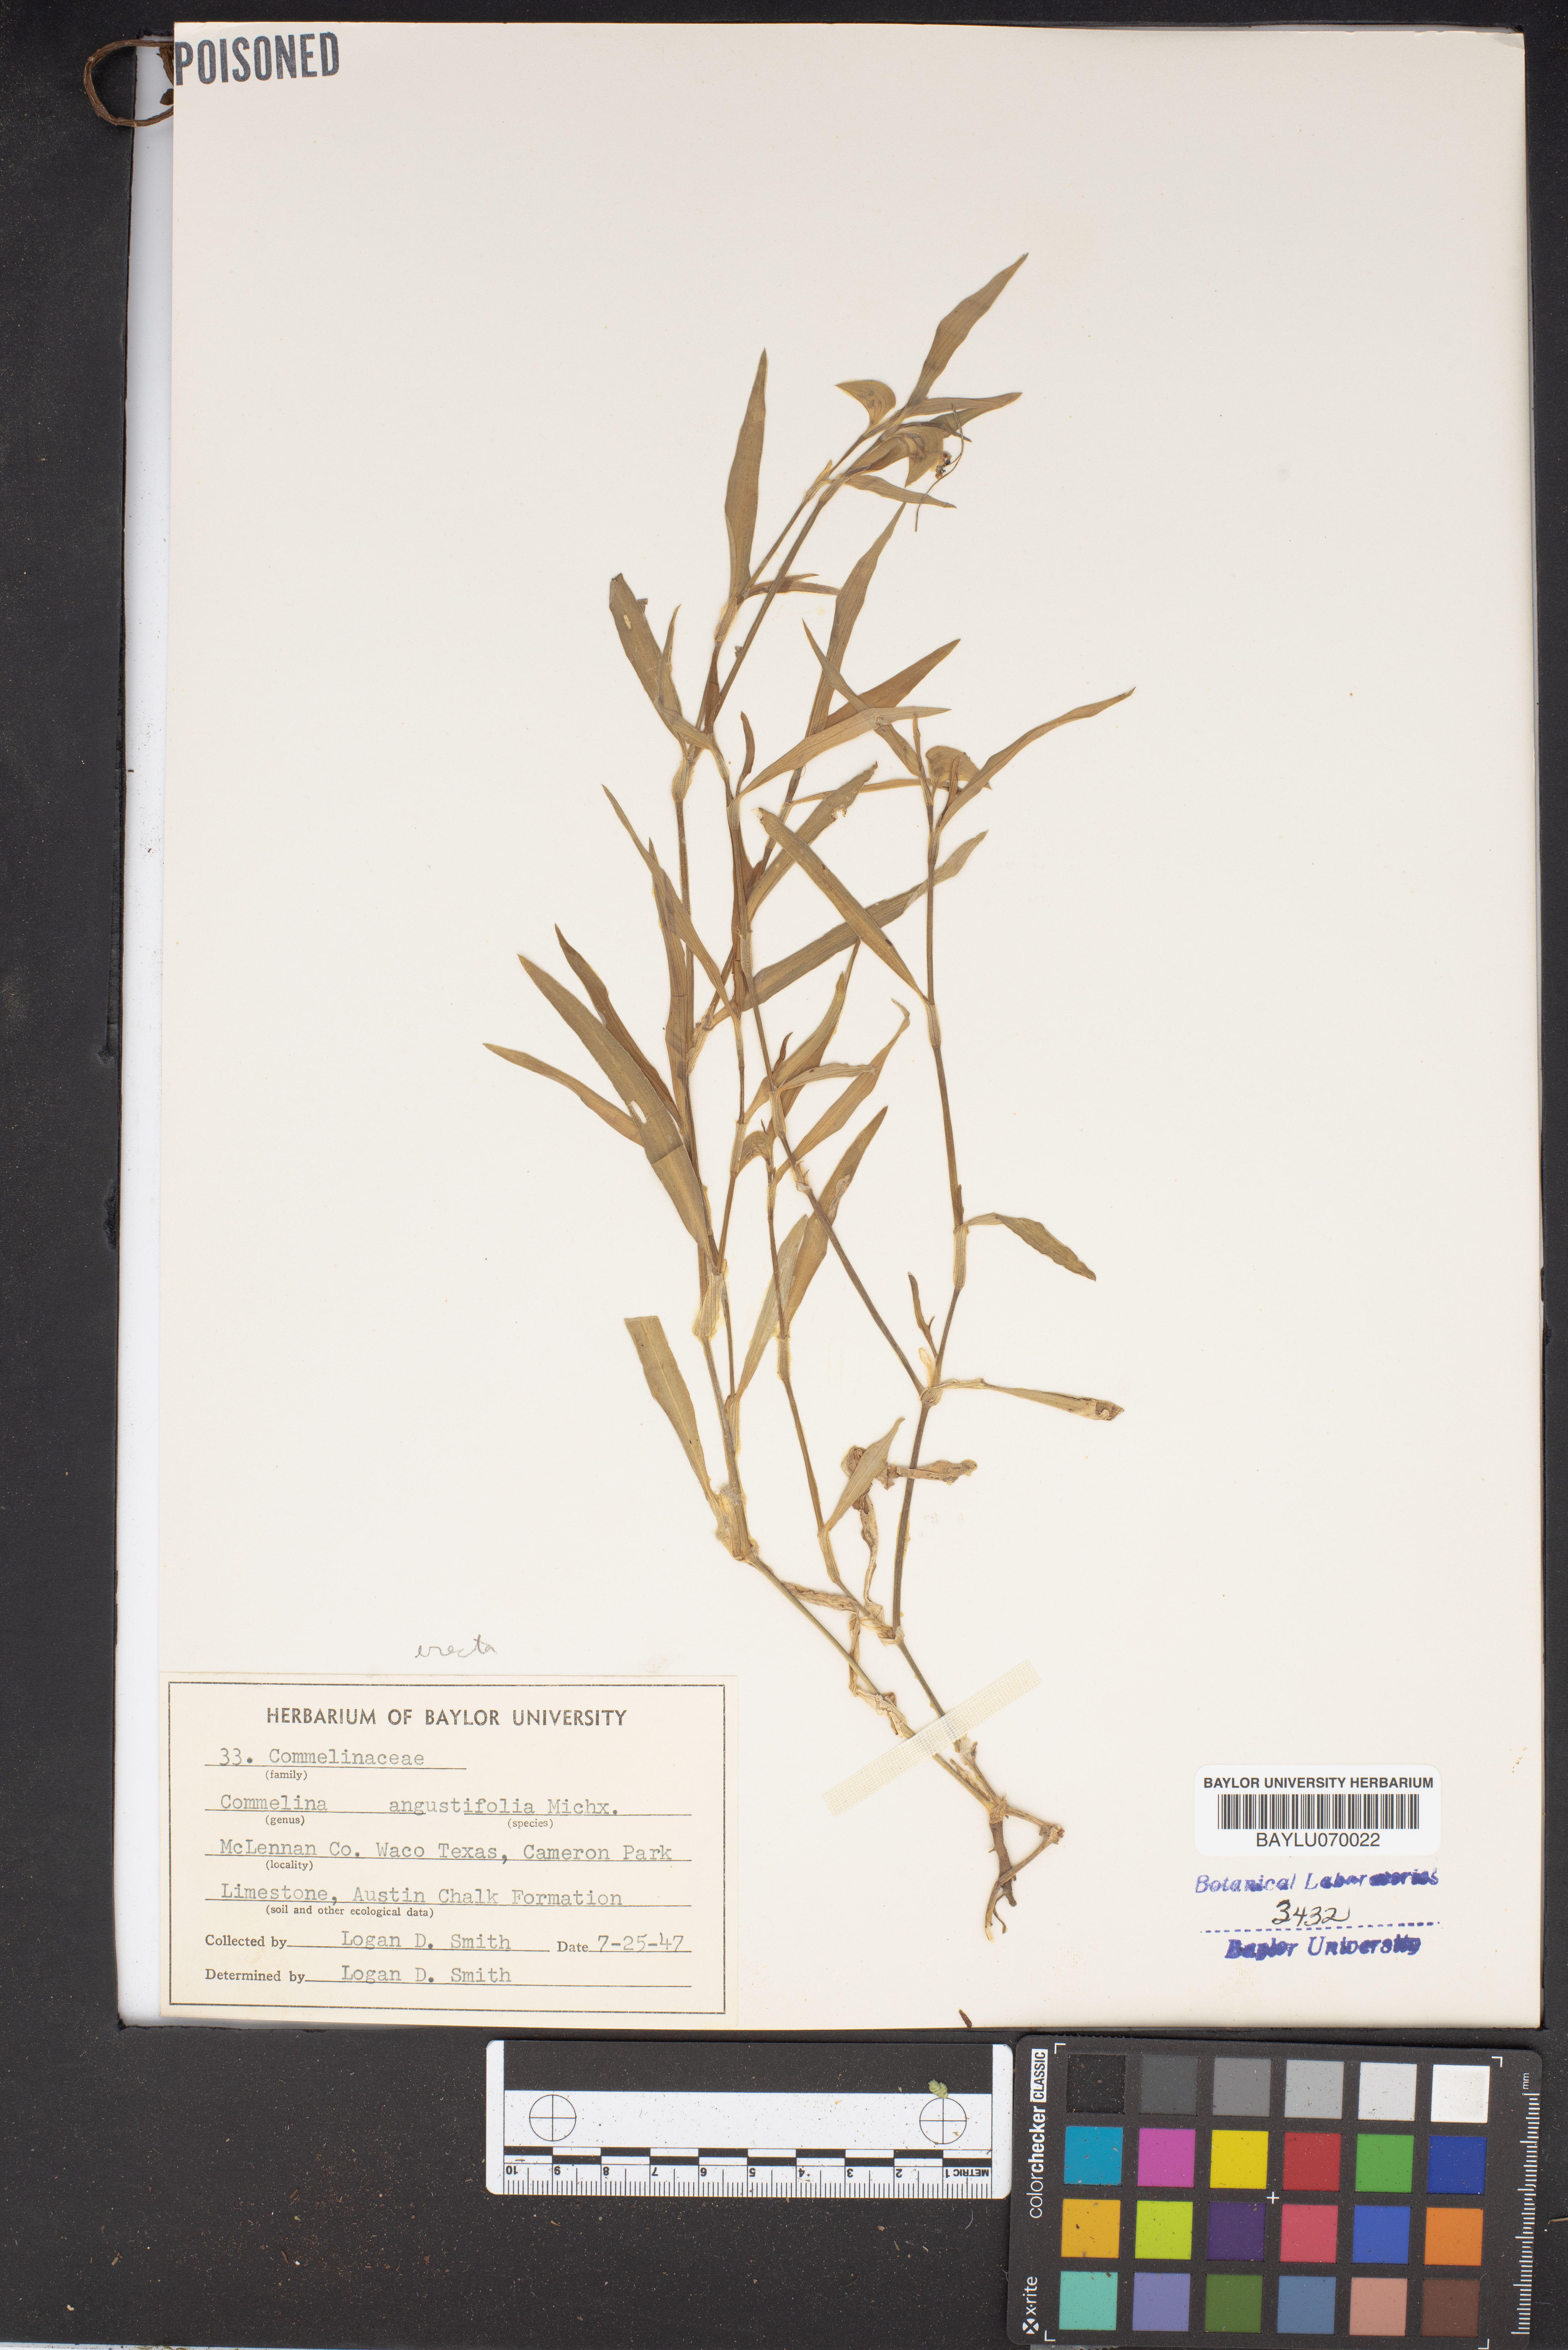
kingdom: Plantae
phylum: Tracheophyta
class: Liliopsida
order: Commelinales
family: Commelinaceae
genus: Commelina
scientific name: Commelina erecta
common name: Blousel blommetjie
